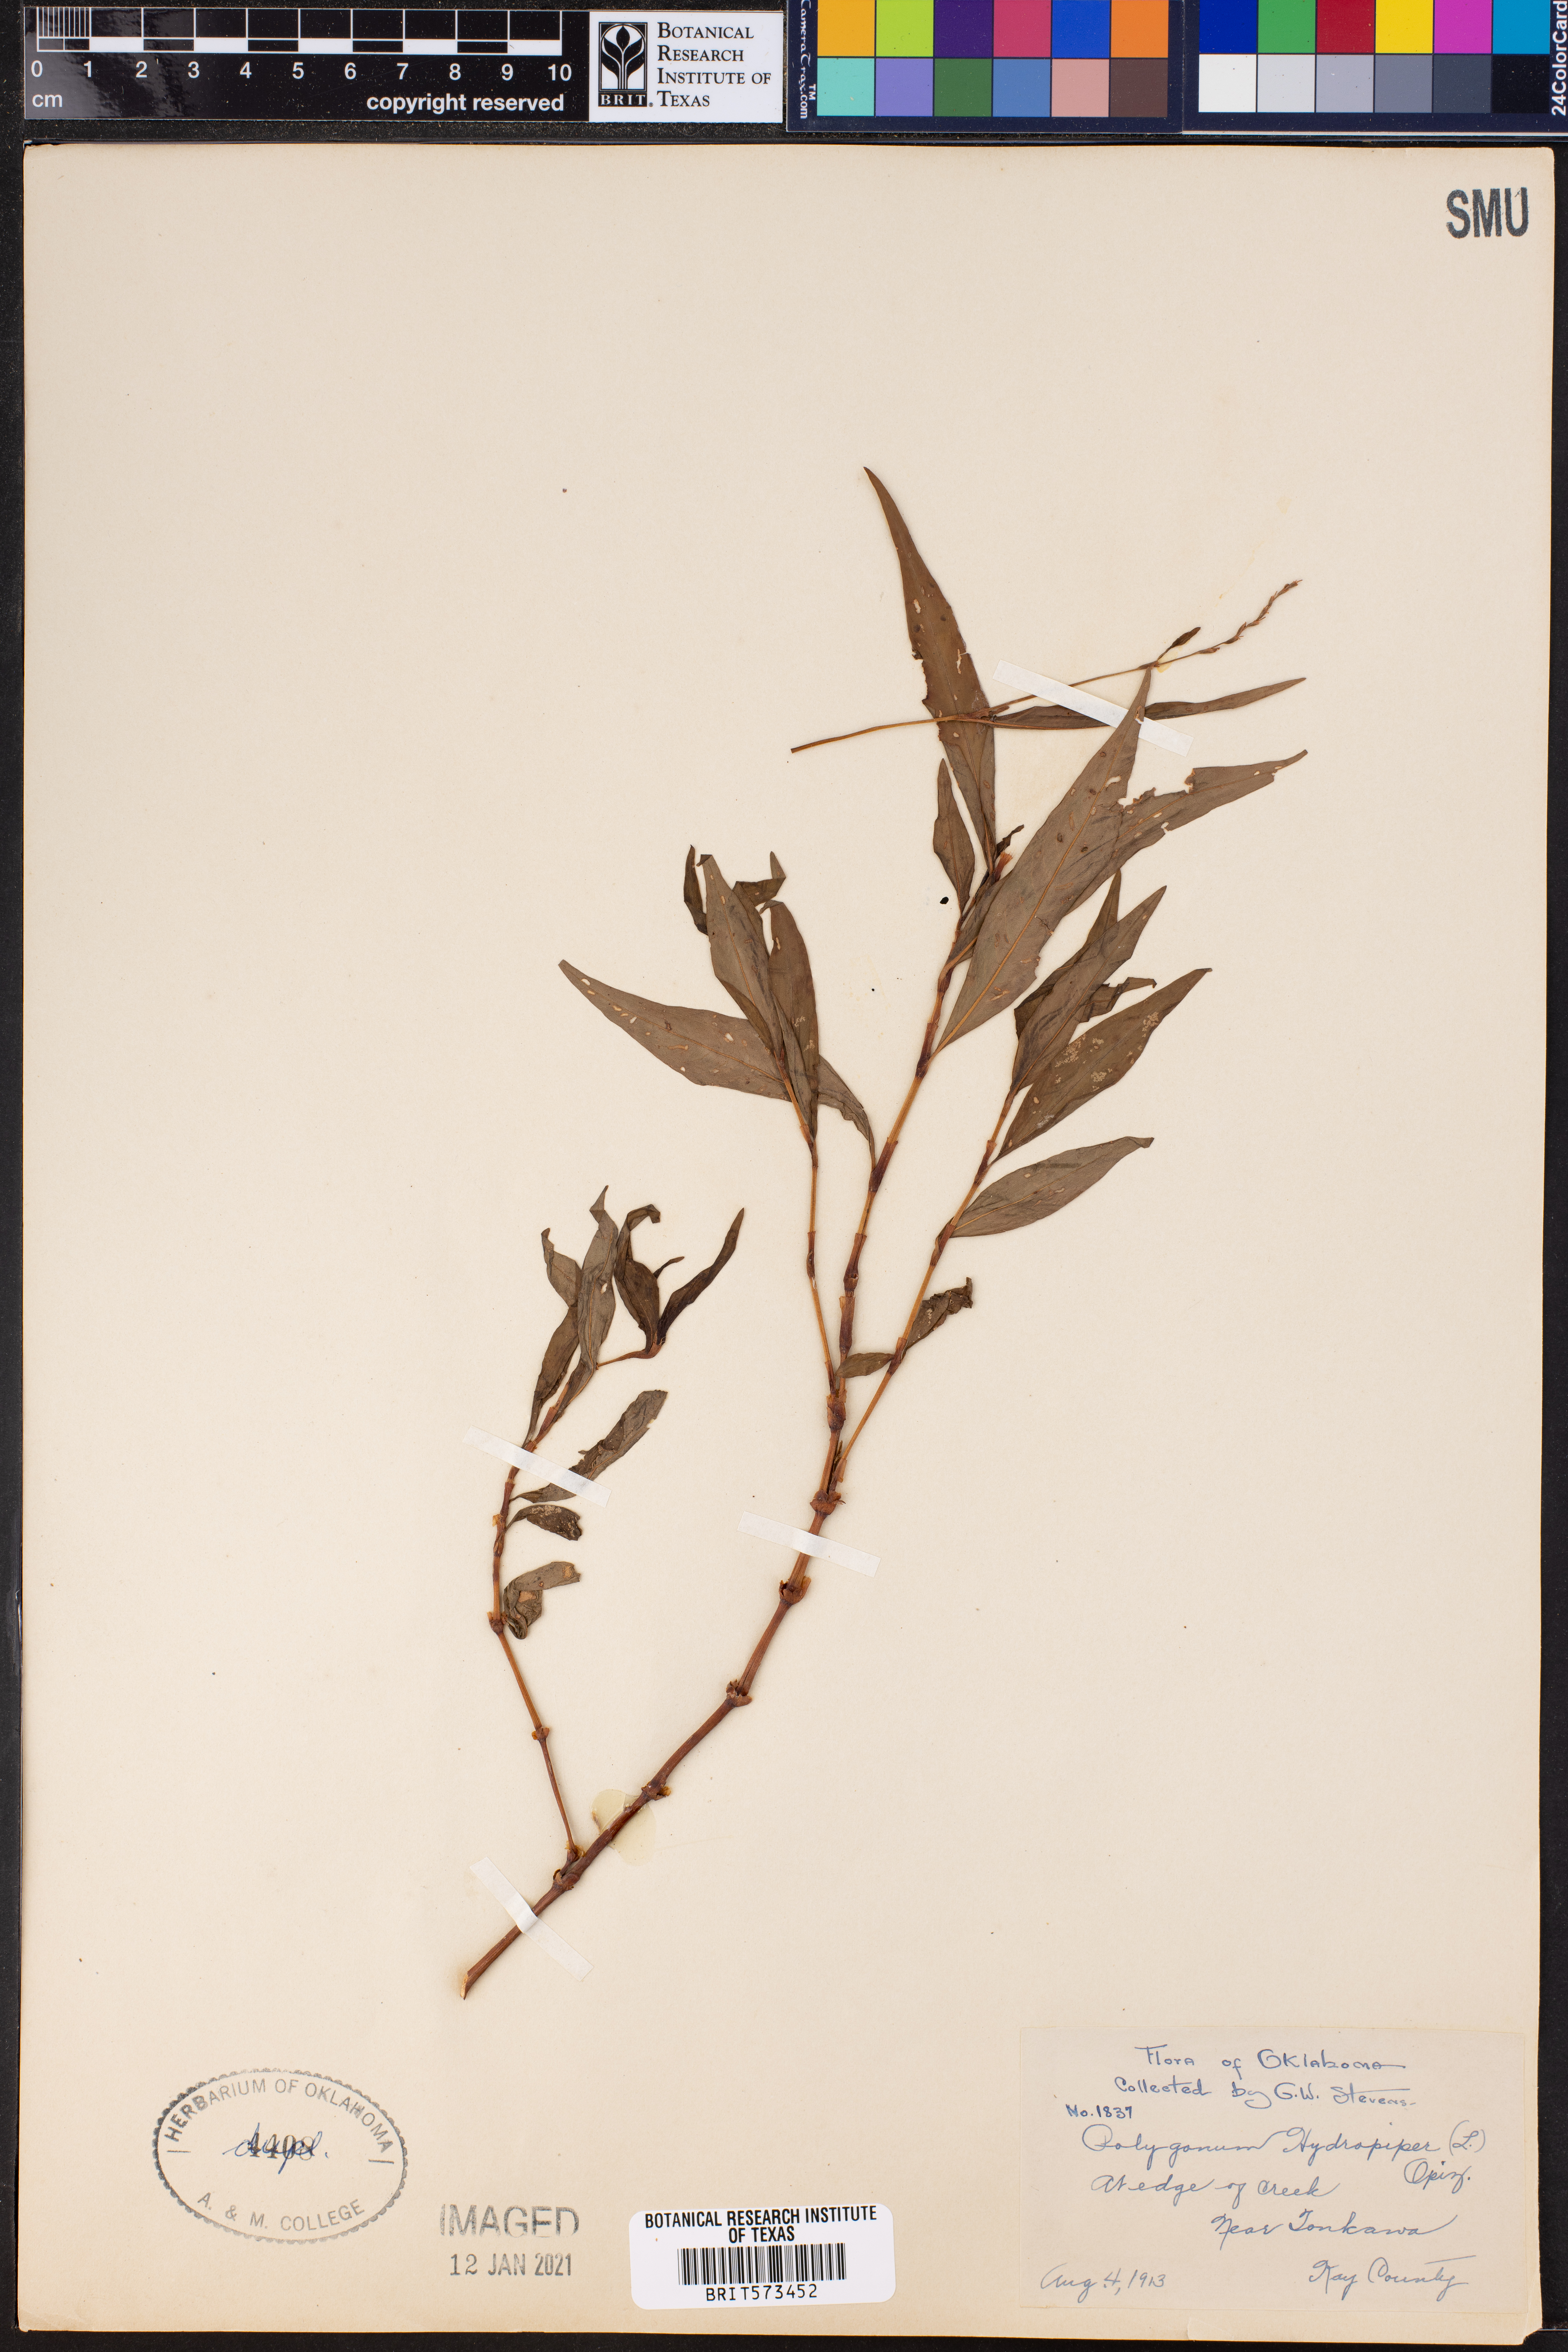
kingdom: Plantae
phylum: Tracheophyta
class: Magnoliopsida
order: Caryophyllales
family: Polygonaceae
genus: Persicaria
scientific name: Persicaria hydropiper
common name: Water-pepper
